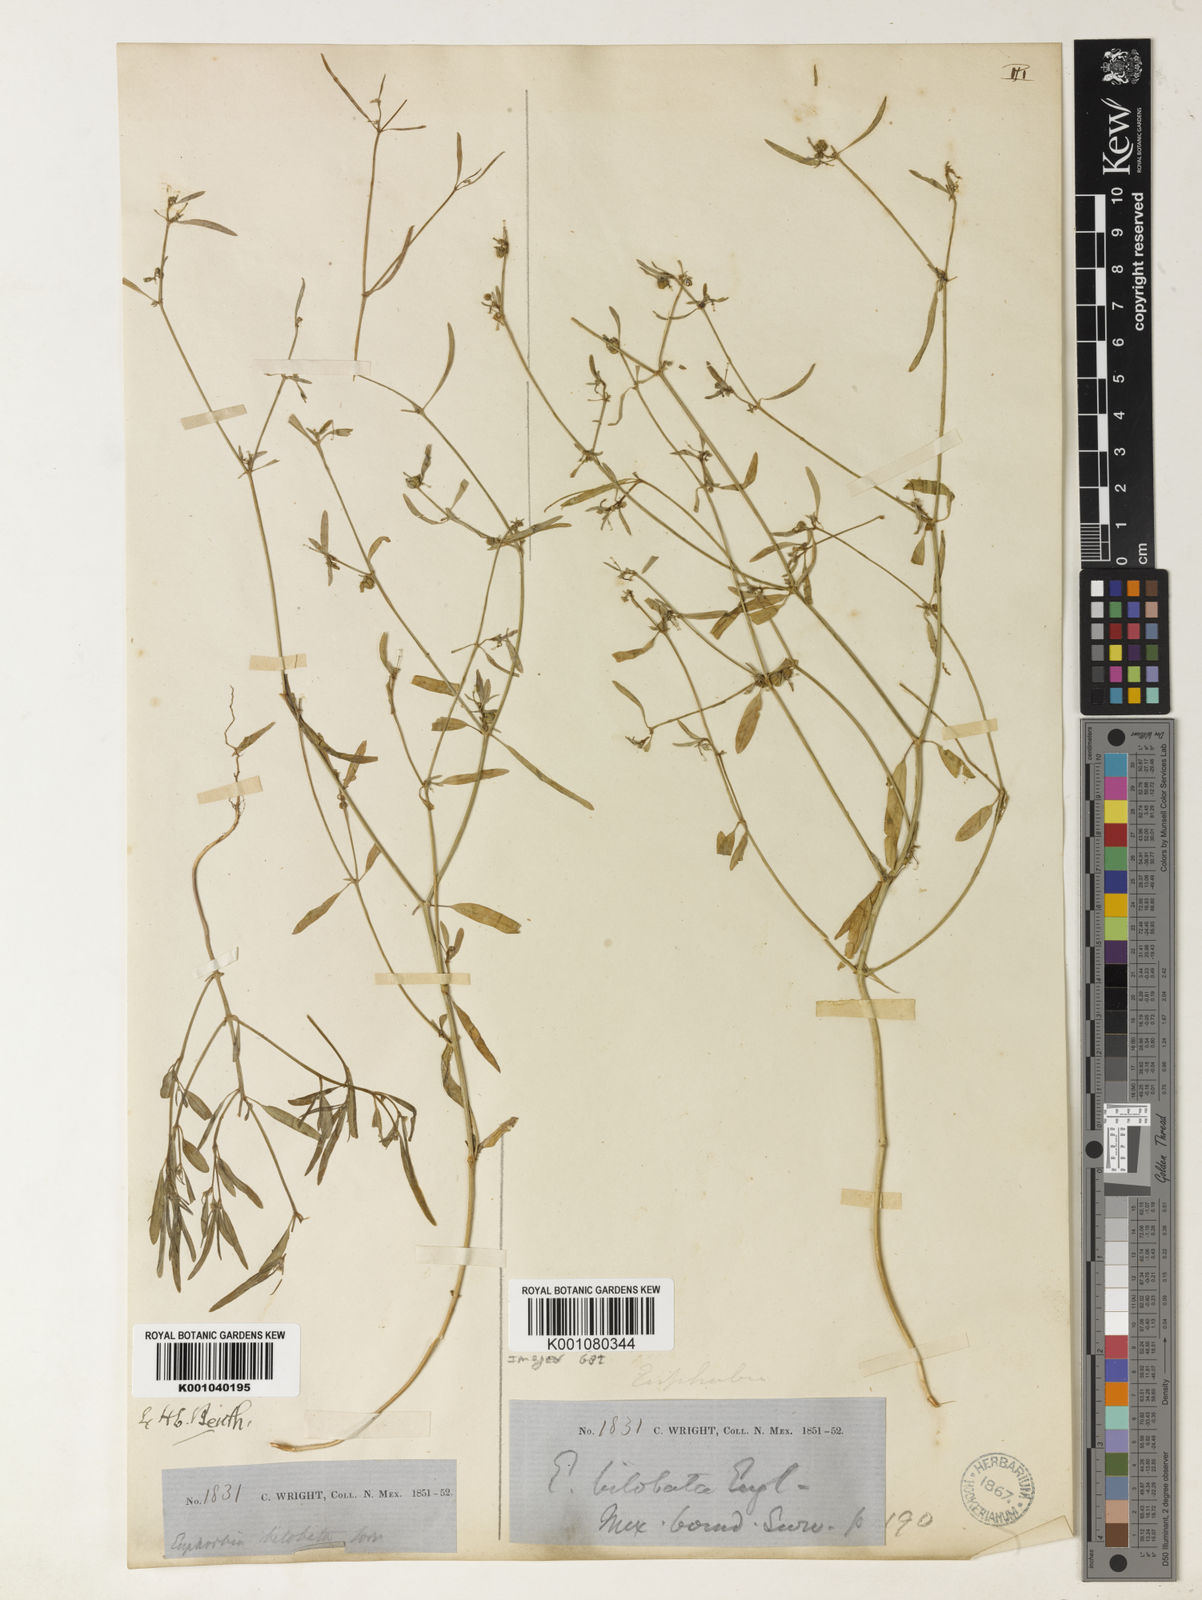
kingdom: Plantae
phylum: Tracheophyta
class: Magnoliopsida
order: Malpighiales
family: Euphorbiaceae
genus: Euphorbia
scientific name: Euphorbia
